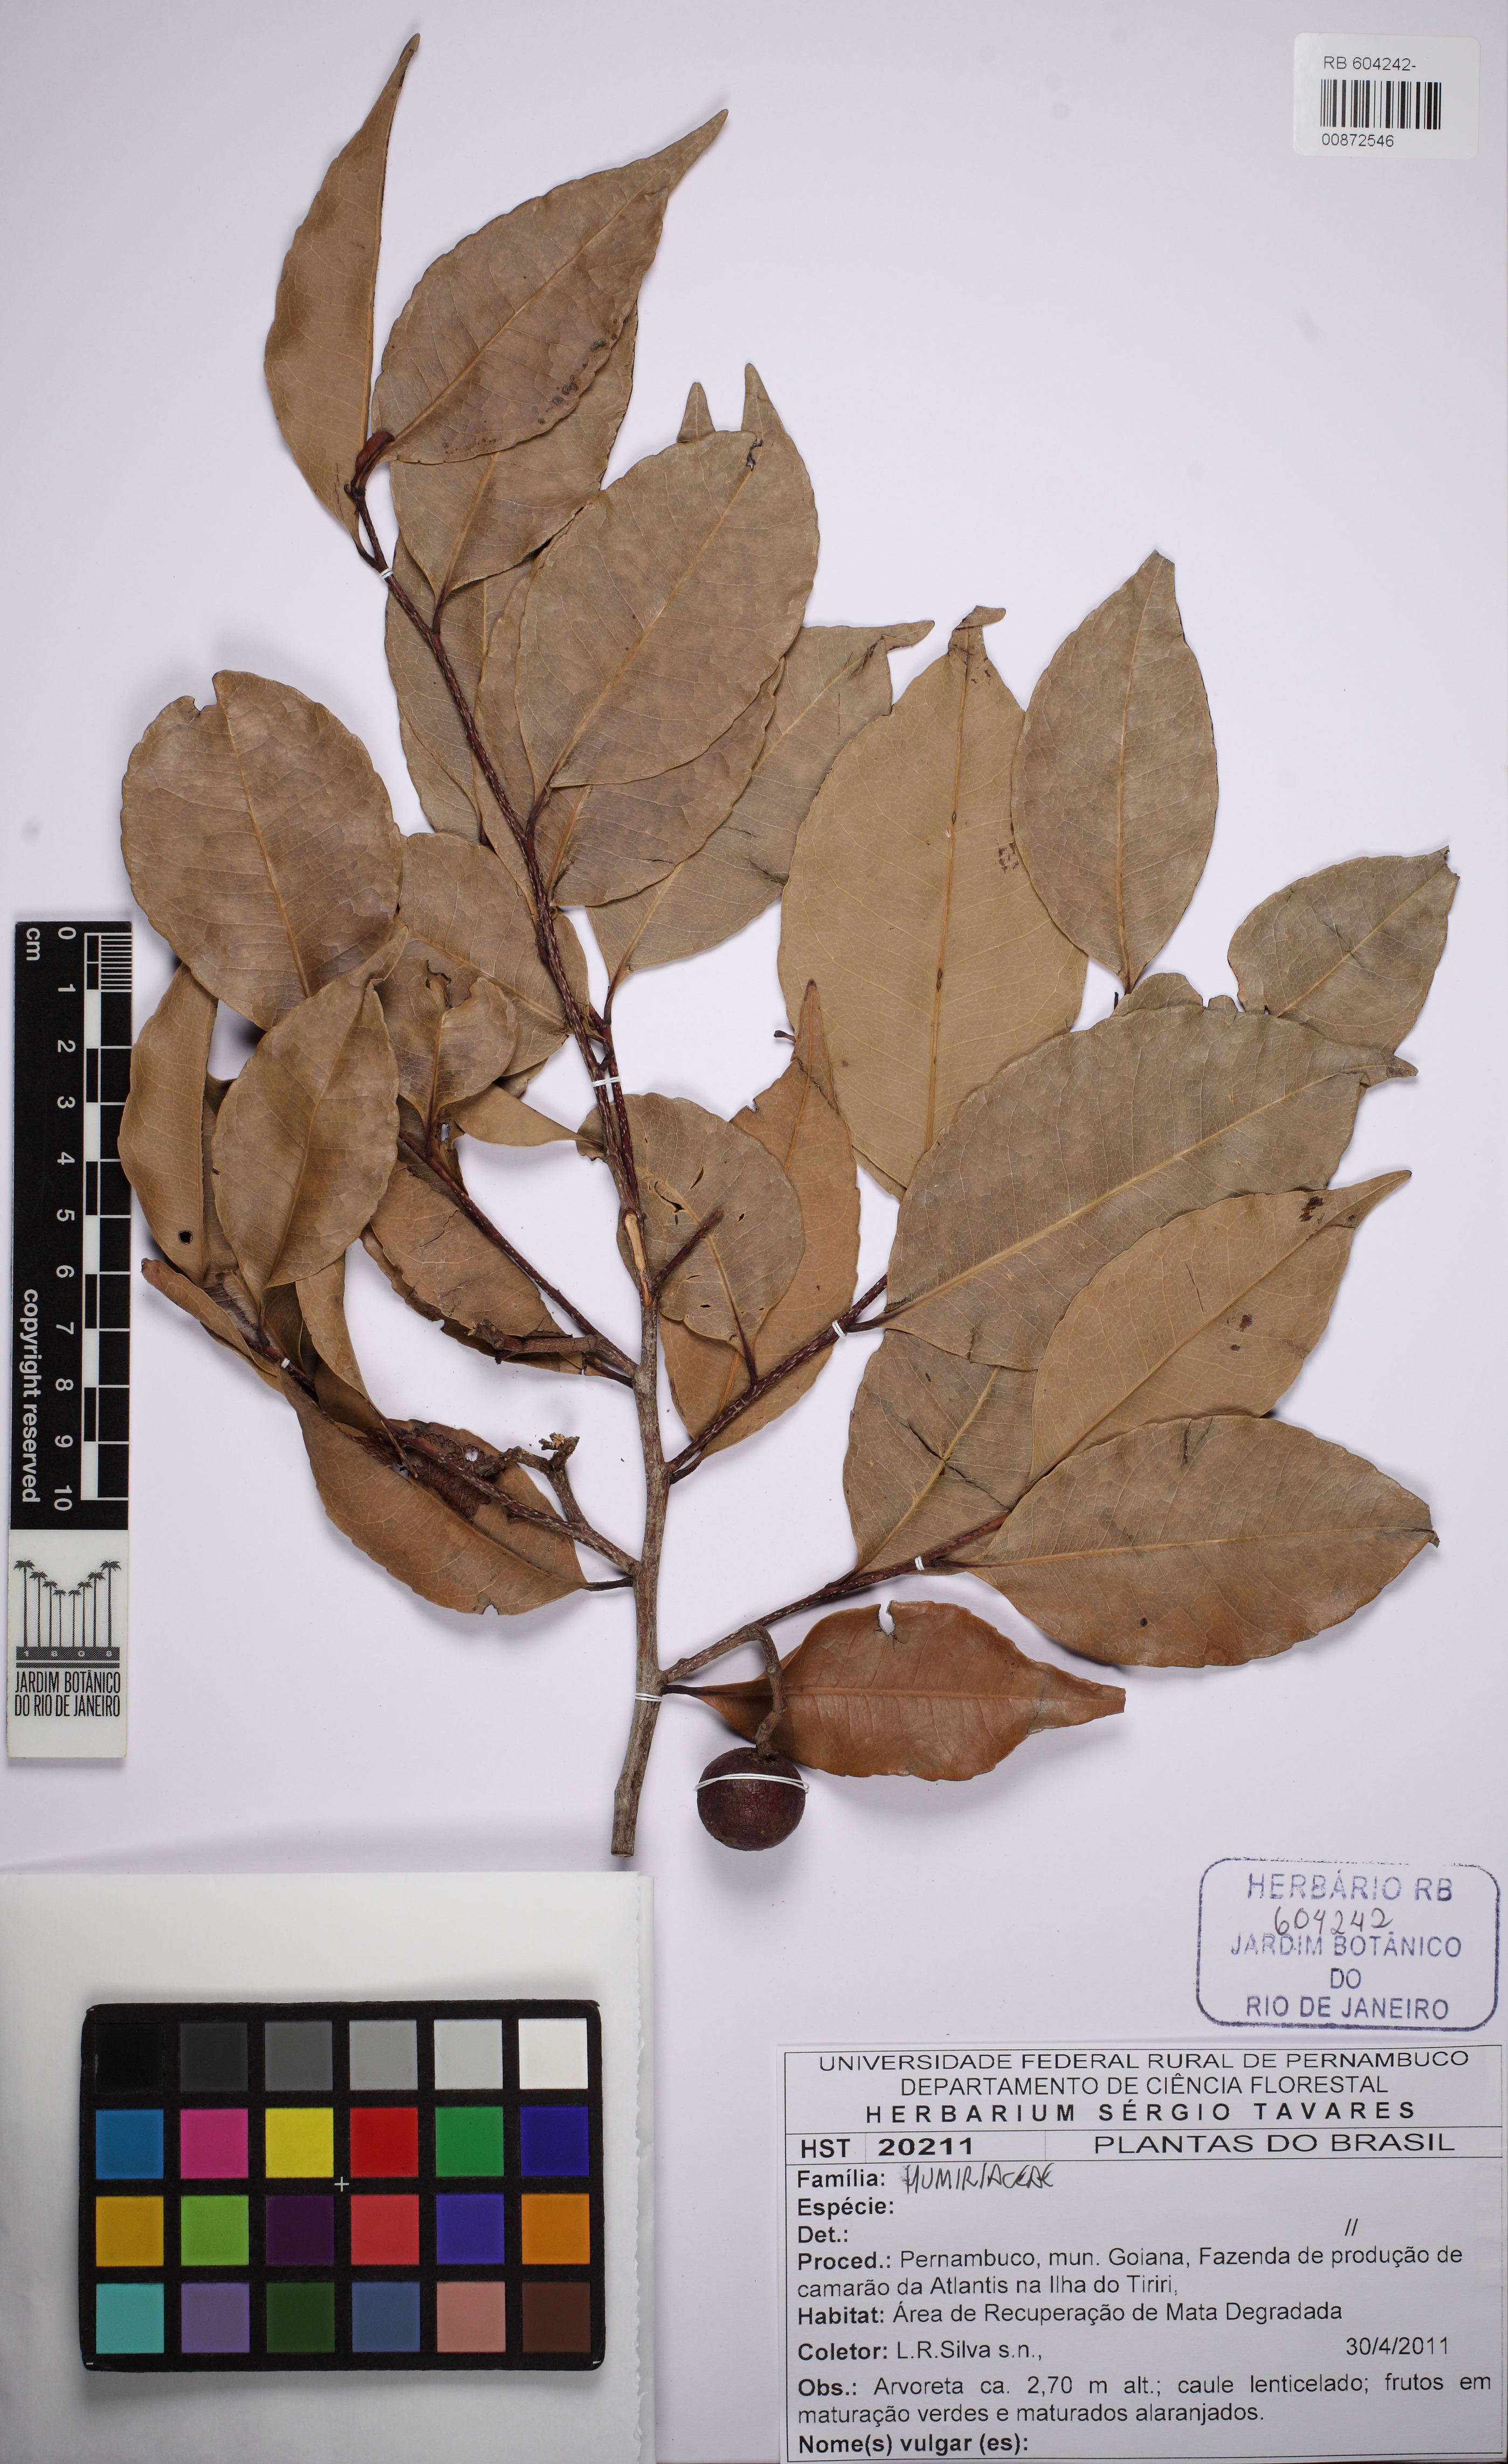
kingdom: Plantae
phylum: Tracheophyta
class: Magnoliopsida
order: Malpighiales
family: Humiriaceae
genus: Sacoglottis
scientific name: Sacoglottis mattogrossensis
